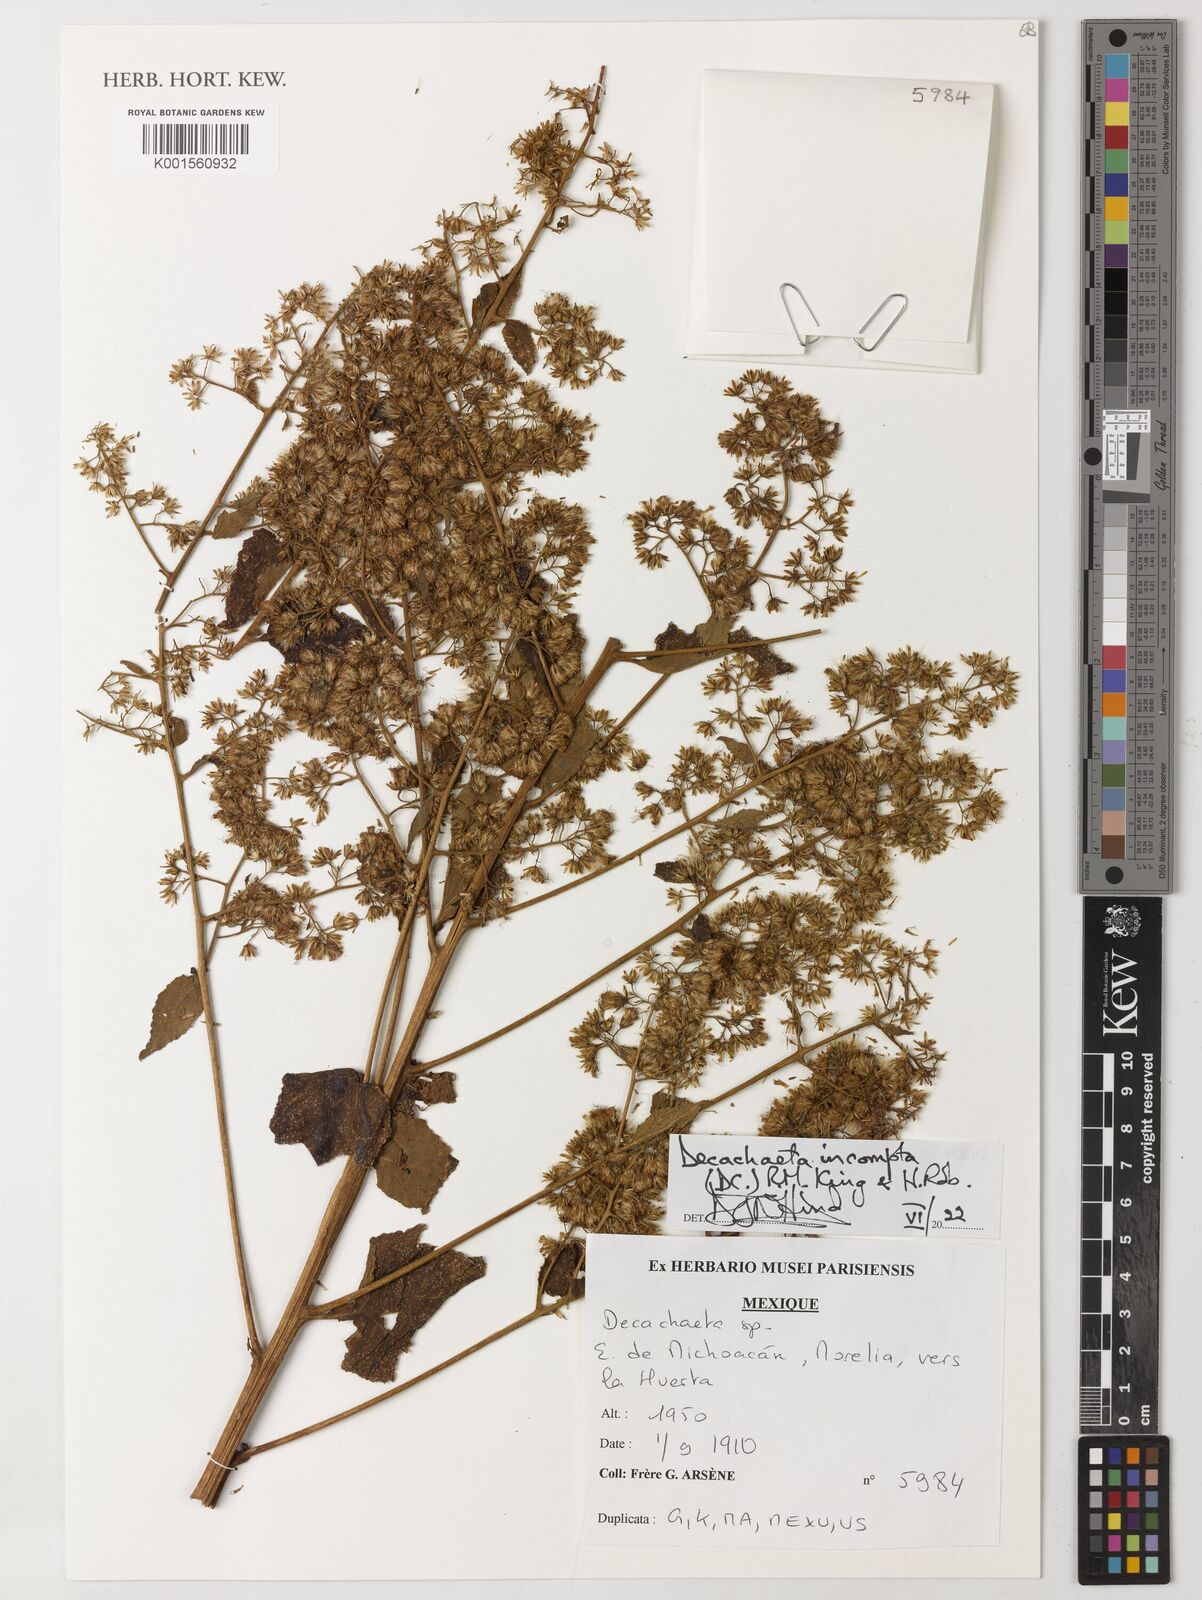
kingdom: Plantae
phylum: Tracheophyta
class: Magnoliopsida
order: Asterales
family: Asteraceae
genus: Decachaeta
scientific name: Decachaeta incompta
